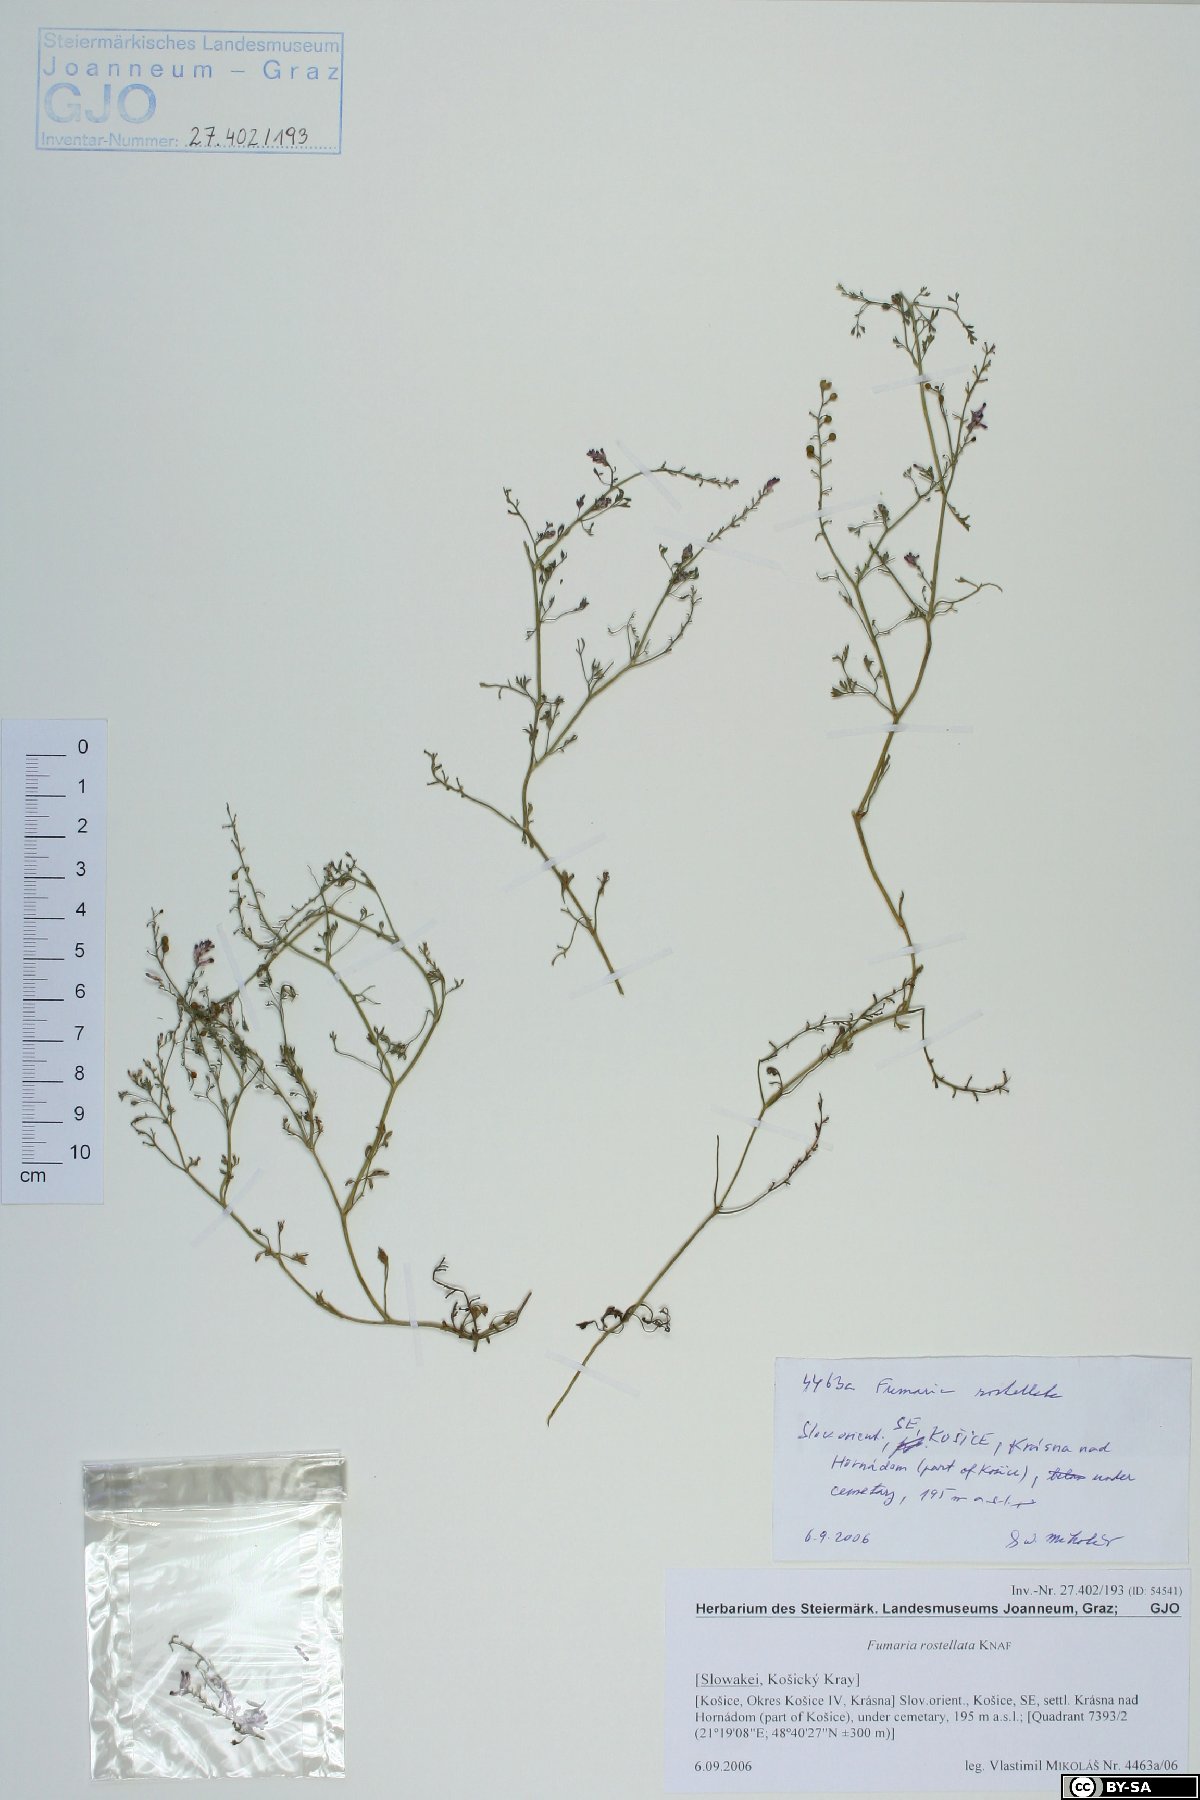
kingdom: Plantae
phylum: Tracheophyta
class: Magnoliopsida
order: Ranunculales
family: Papaveraceae
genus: Fumaria
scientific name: Fumaria rostellata
